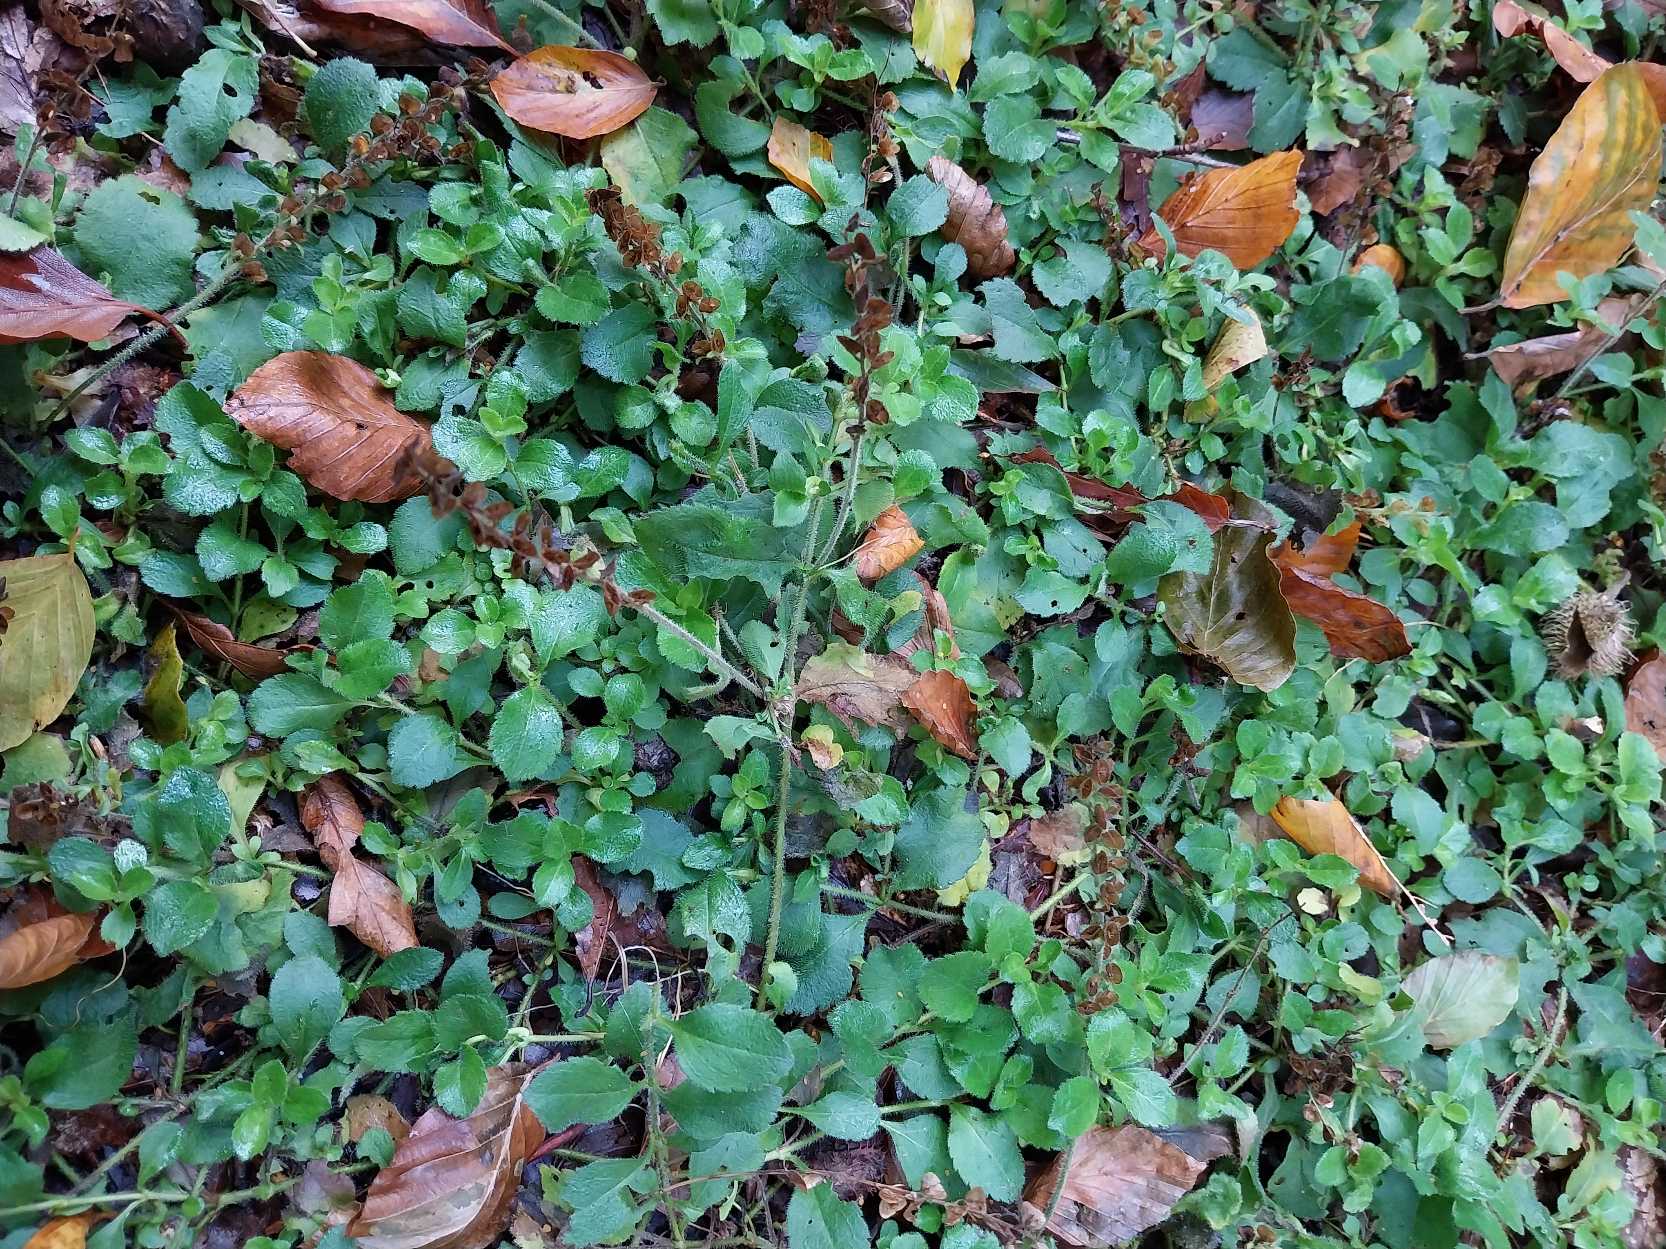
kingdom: Plantae
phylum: Tracheophyta
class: Magnoliopsida
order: Lamiales
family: Plantaginaceae
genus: Veronica
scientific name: Veronica officinalis
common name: Læge-ærenpris
